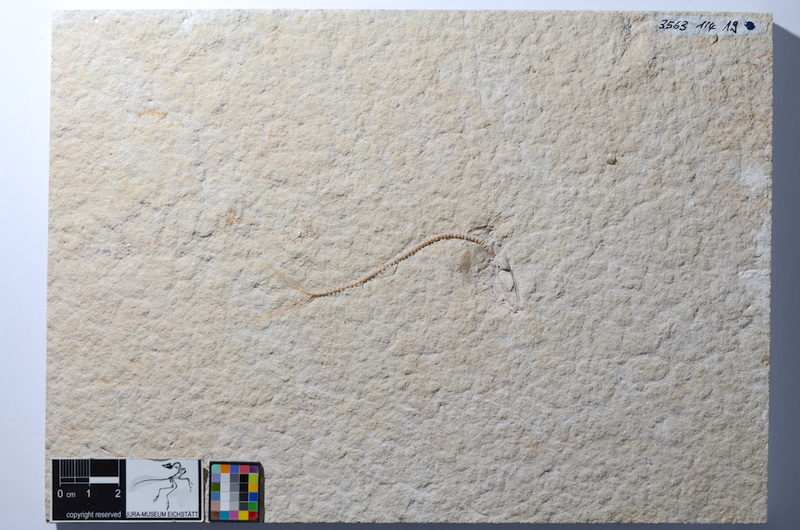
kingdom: Animalia
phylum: Chordata
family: Ascalaboidae
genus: Tharsis
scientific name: Tharsis dubius
